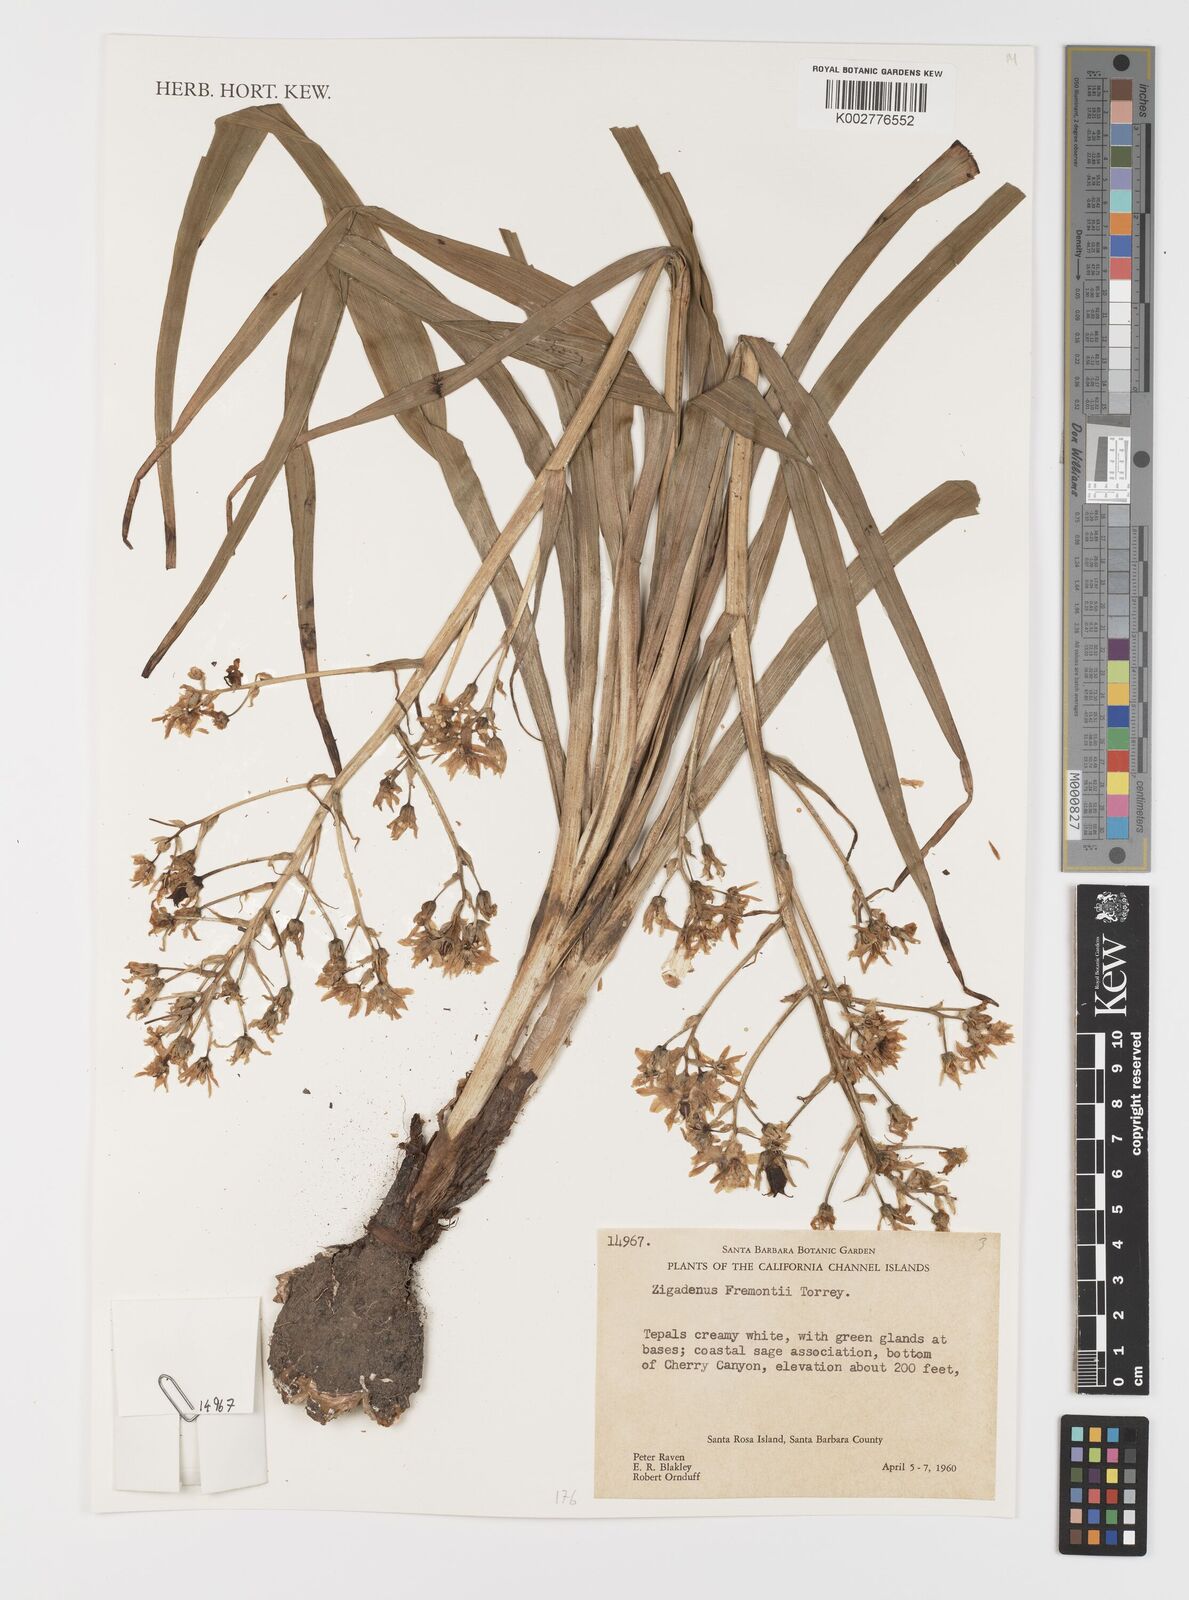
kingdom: Plantae
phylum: Tracheophyta
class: Liliopsida
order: Liliales
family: Melanthiaceae
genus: Toxicoscordion
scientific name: Toxicoscordion fremontii
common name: Fremont's death camas
